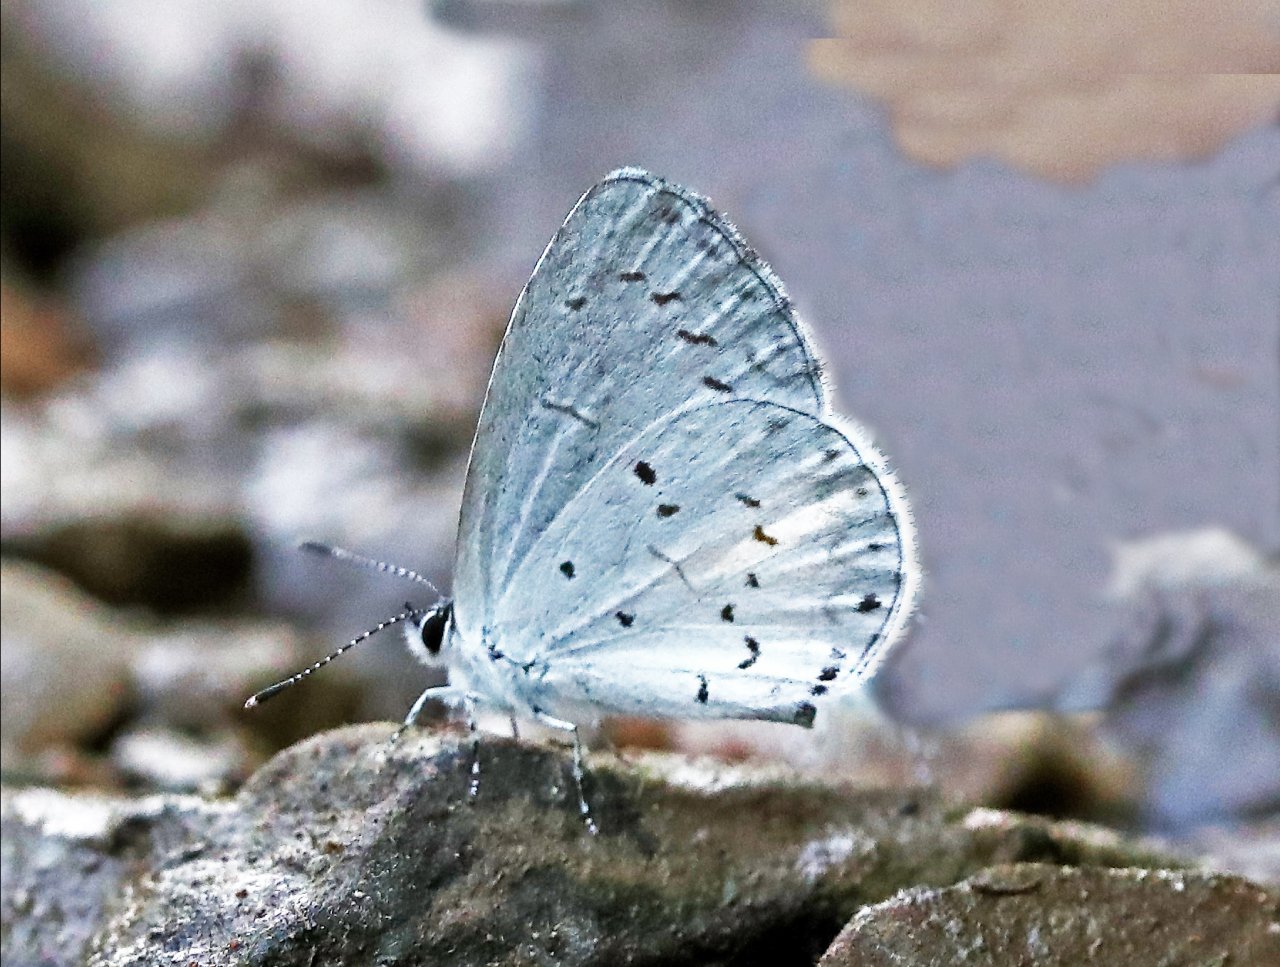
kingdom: Animalia
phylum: Arthropoda
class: Insecta
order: Lepidoptera
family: Lycaenidae
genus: Cyaniris
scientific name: Cyaniris neglecta
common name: Summer Azure
